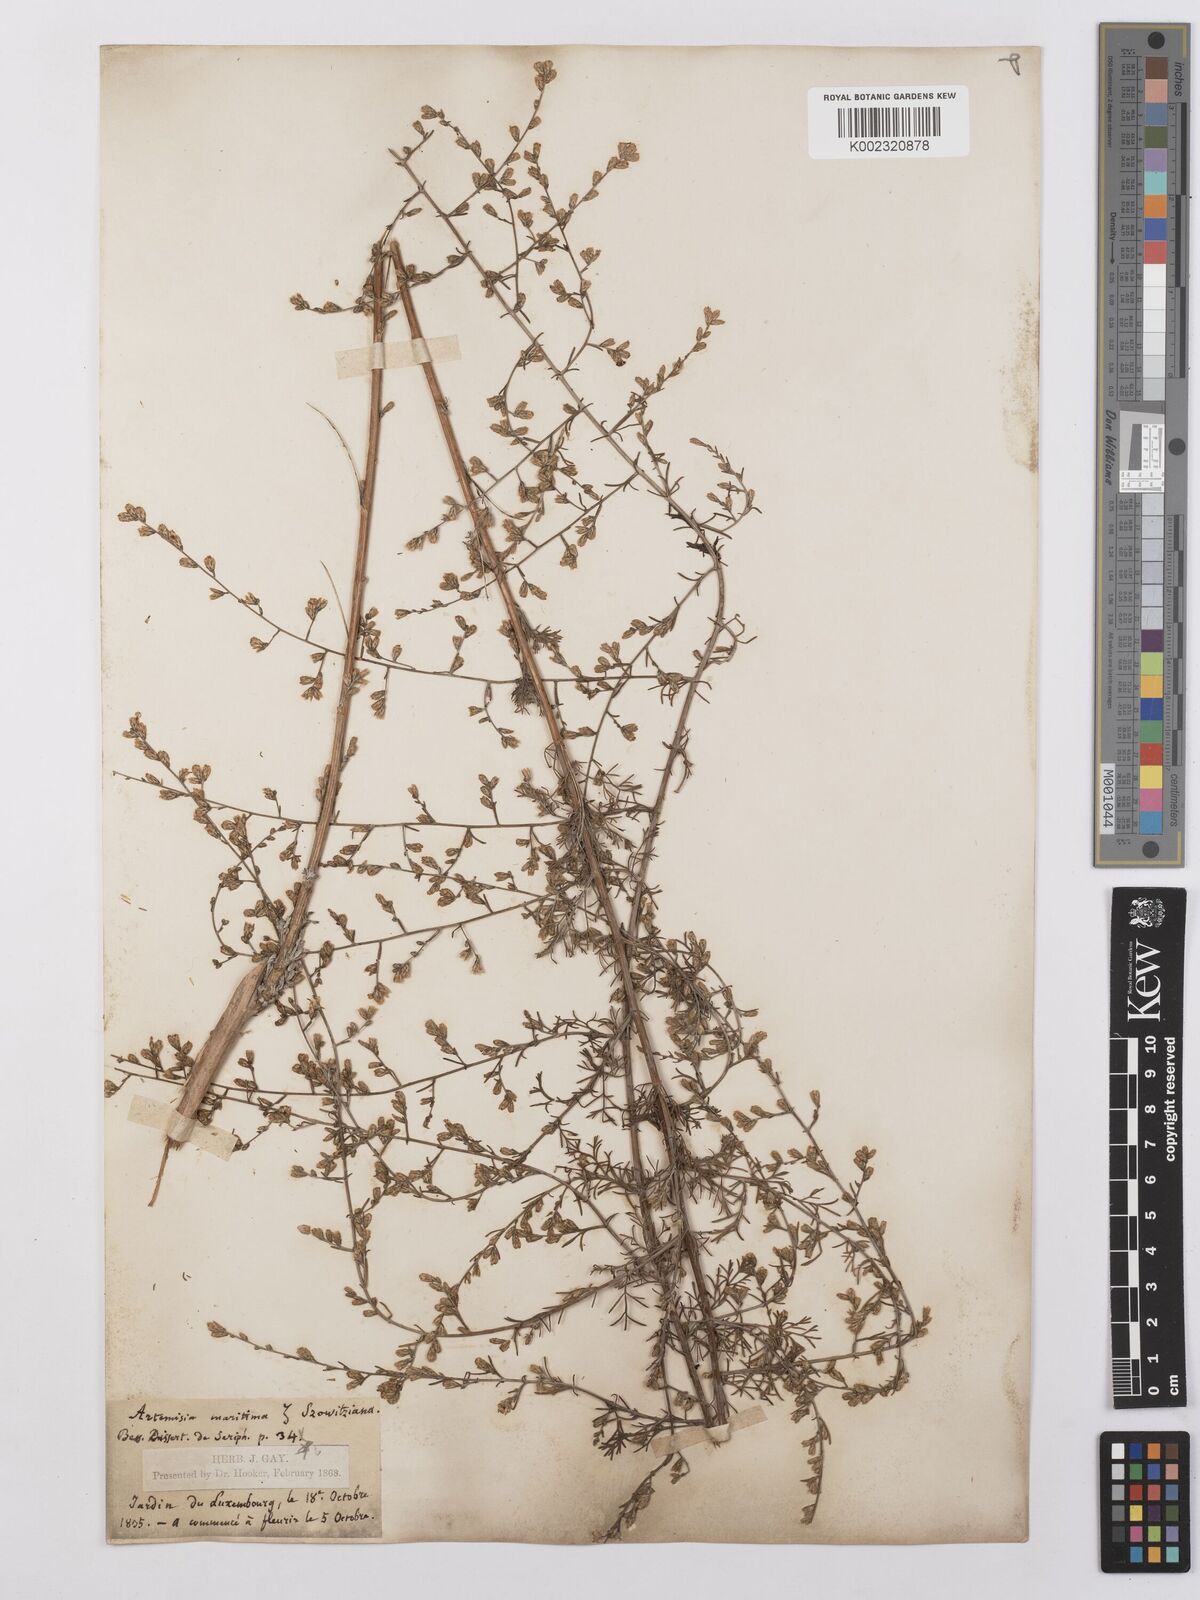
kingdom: Plantae
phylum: Tracheophyta
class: Magnoliopsida
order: Asterales
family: Asteraceae
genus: Artemisia
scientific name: Artemisia santonicum
